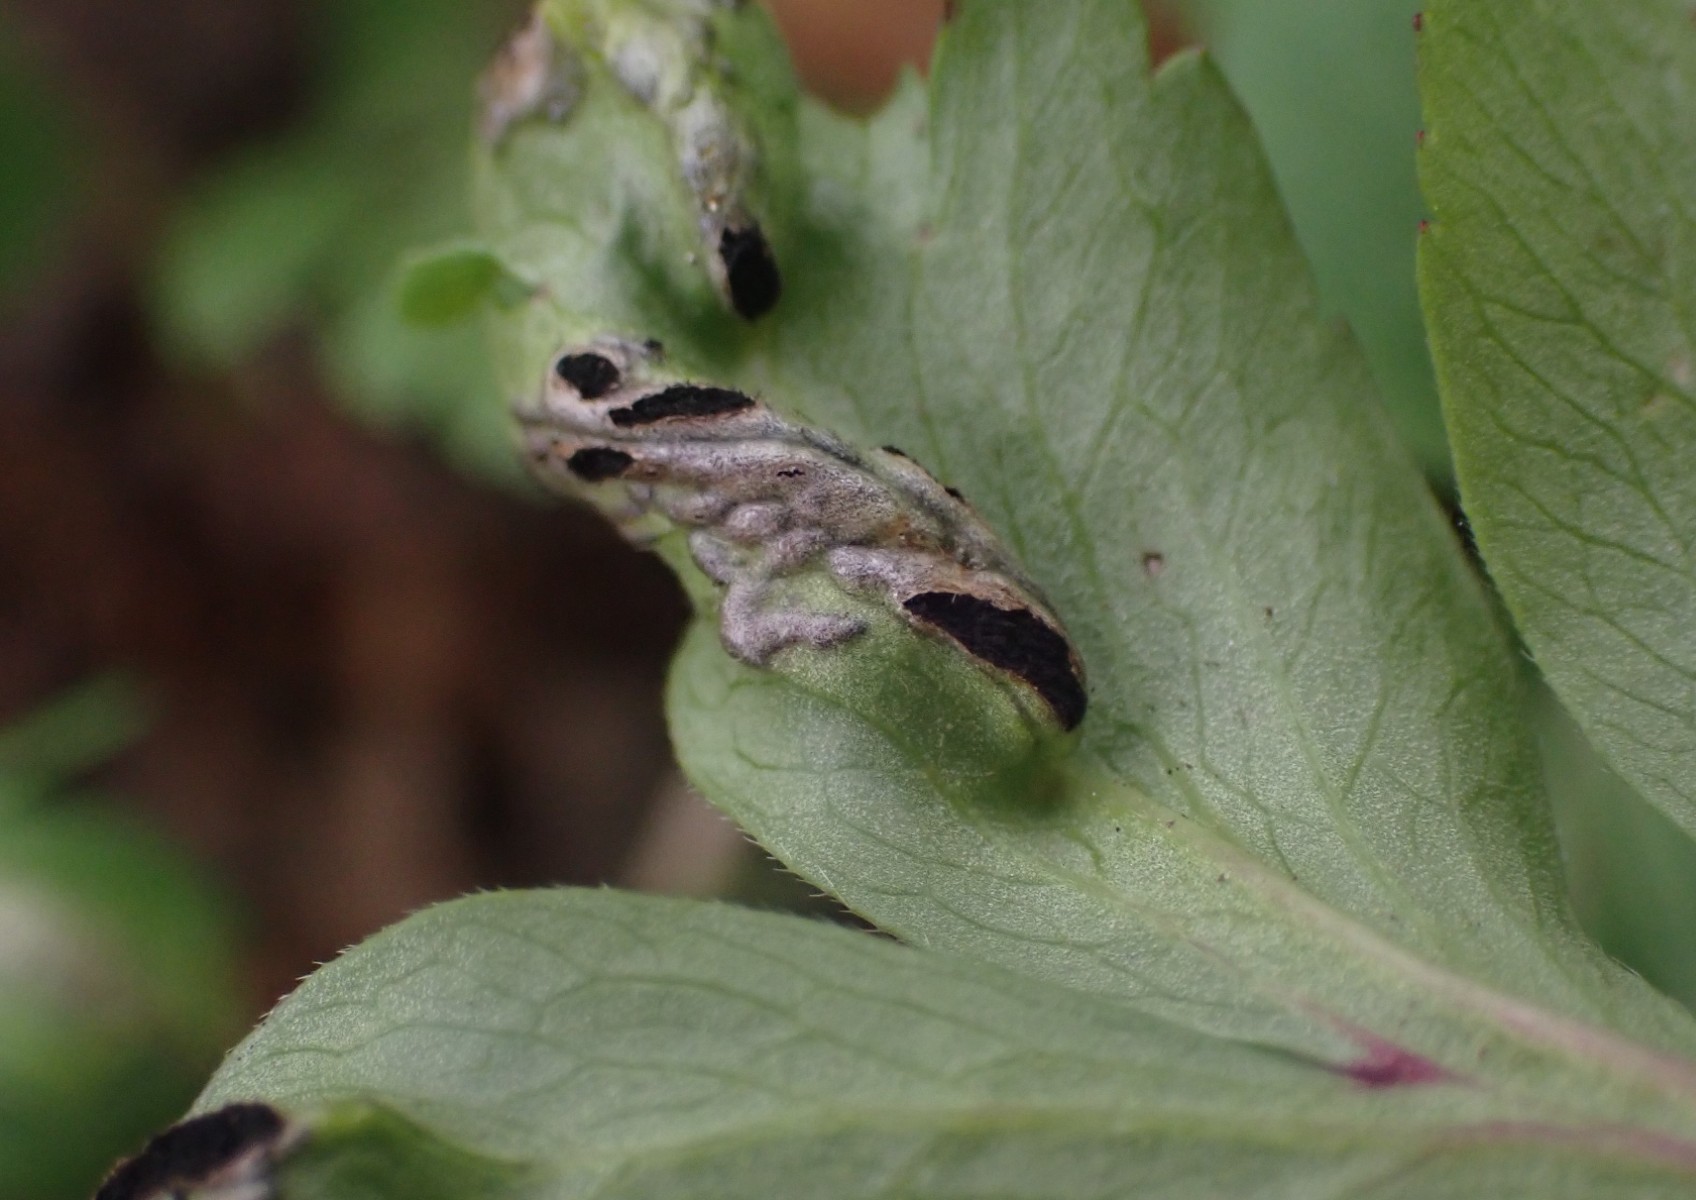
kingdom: Fungi
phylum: Basidiomycota
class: Ustilaginomycetes
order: Urocystidales
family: Urocystidaceae
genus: Urocystis
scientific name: Urocystis anemones
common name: anemone-brand
